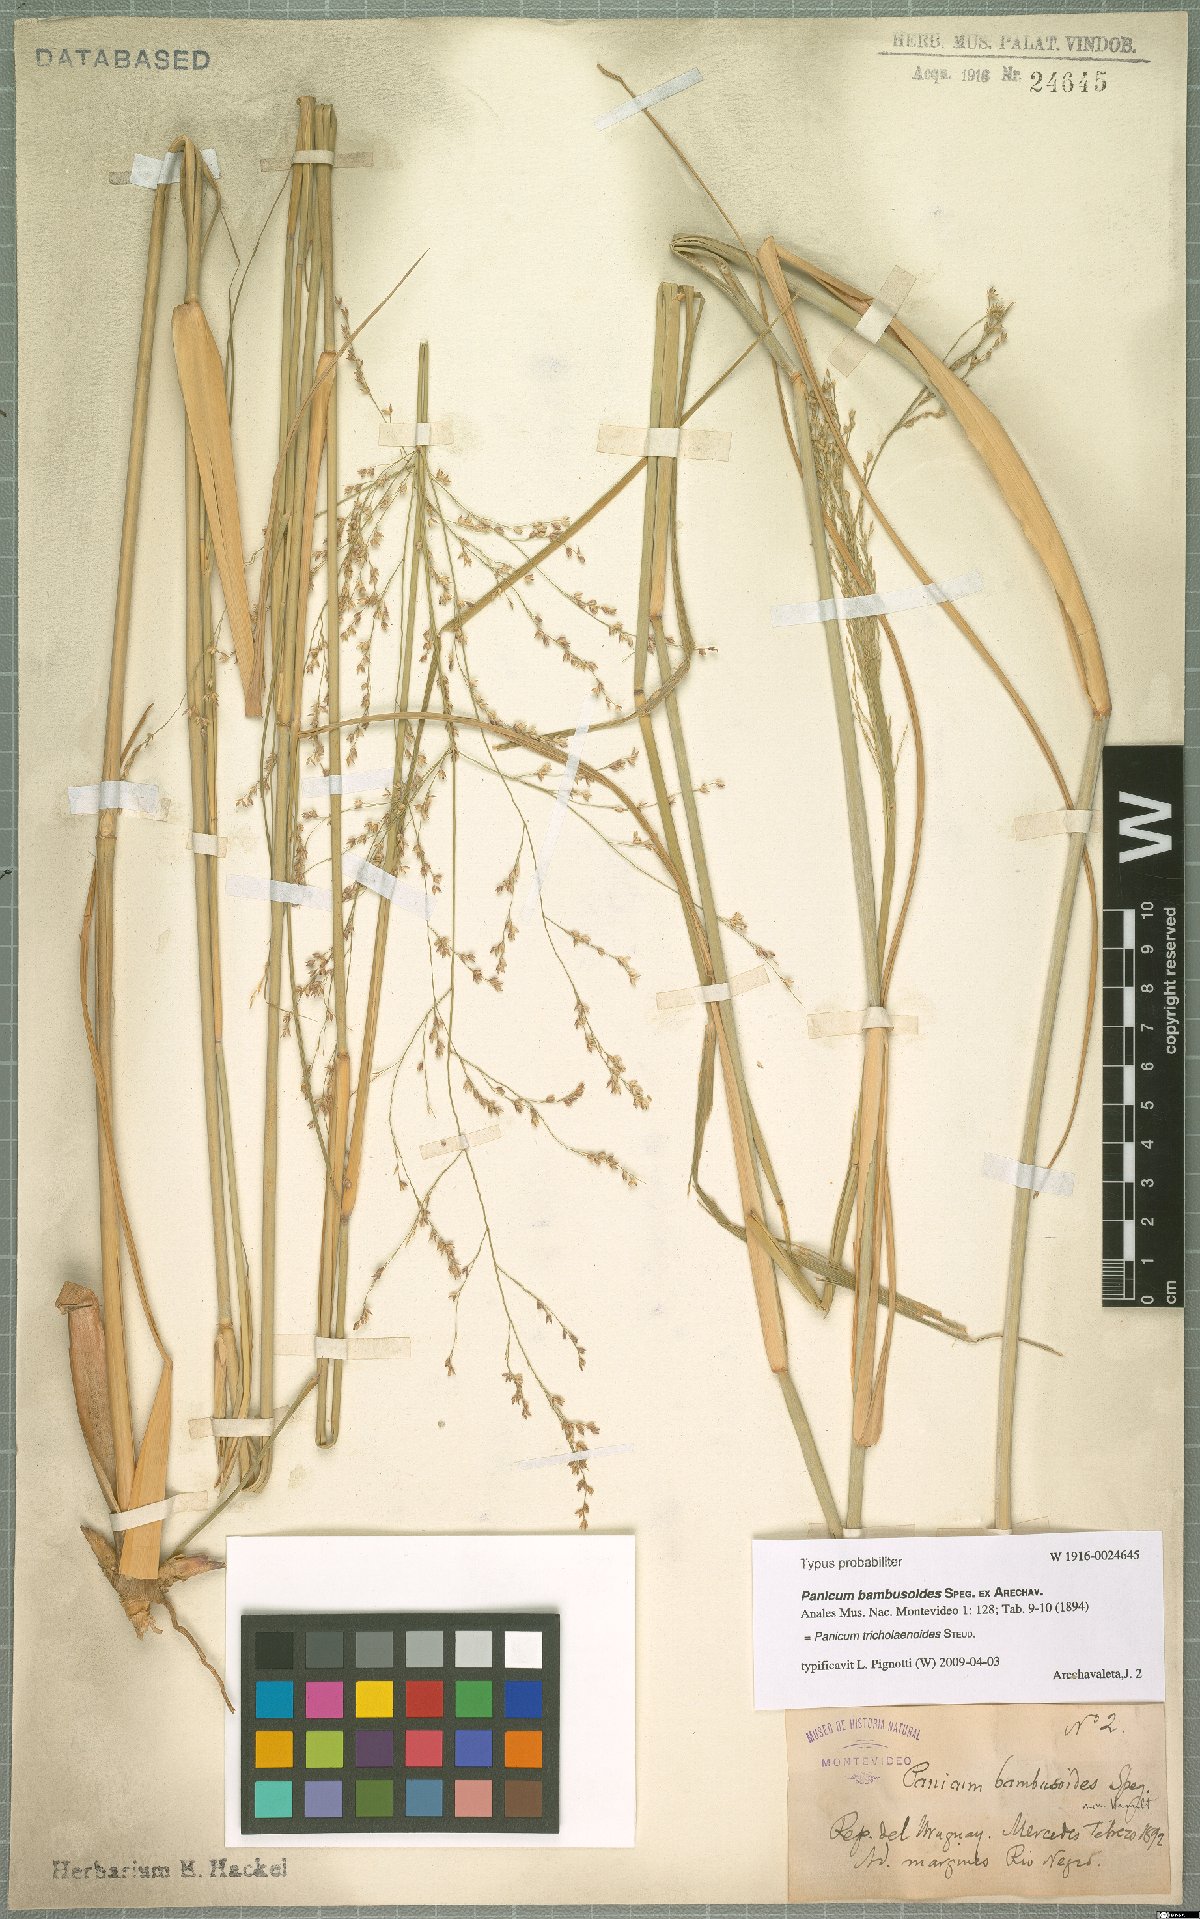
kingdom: Plantae
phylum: Tracheophyta
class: Liliopsida
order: Poales
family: Poaceae
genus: Panicum
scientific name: Panicum tricholaenoides
